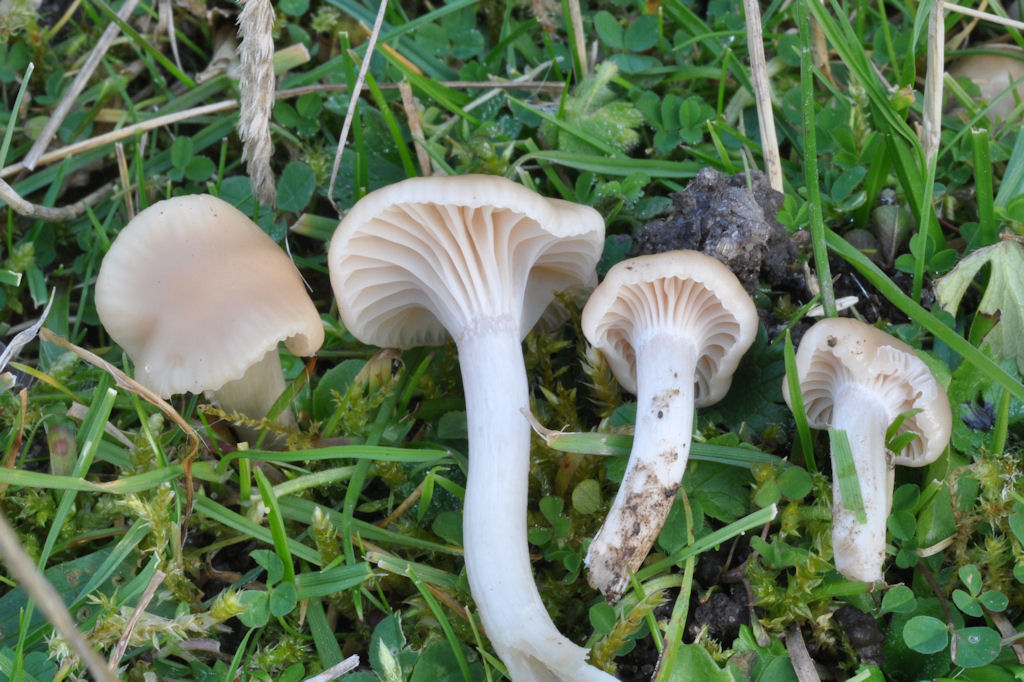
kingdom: Fungi
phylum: Basidiomycota
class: Agaricomycetes
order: Agaricales
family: Hygrophoraceae
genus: Cuphophyllus
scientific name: Cuphophyllus virgineus
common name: isabella-vokshat
